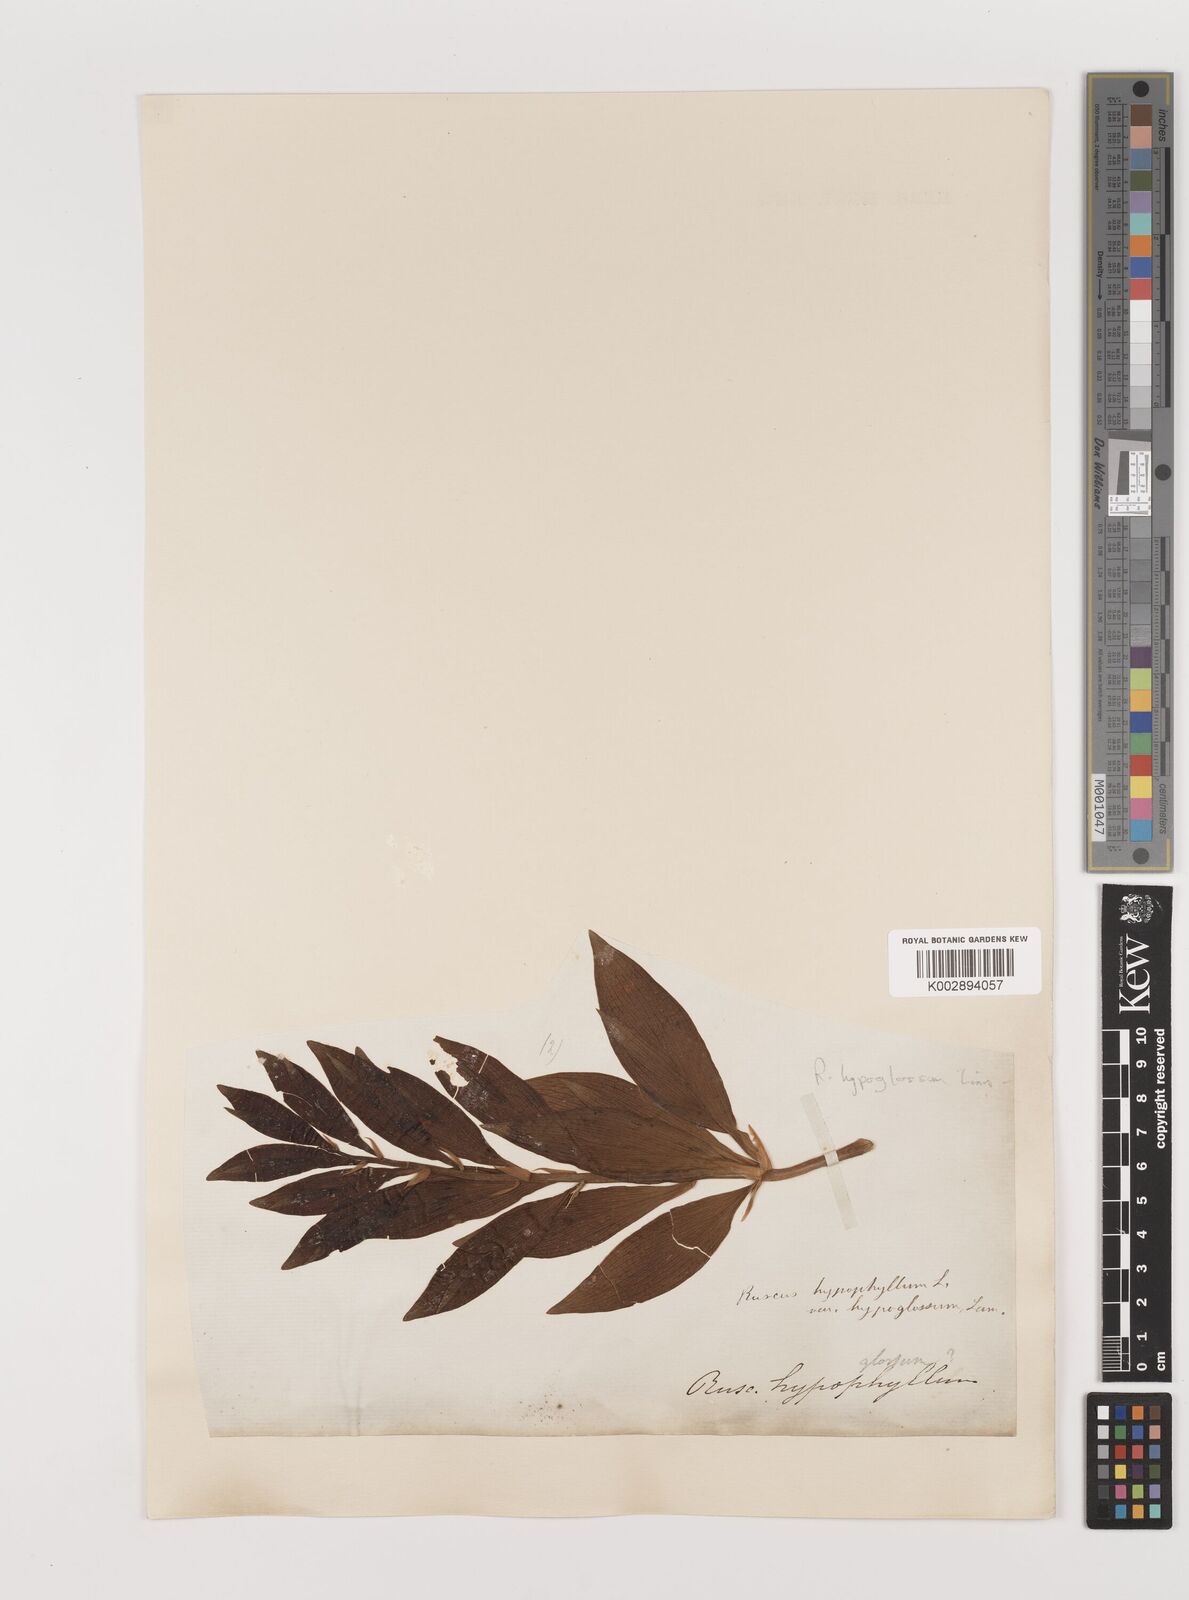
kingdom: Plantae
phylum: Tracheophyta
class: Liliopsida
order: Asparagales
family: Asparagaceae
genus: Ruscus
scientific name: Ruscus hypoglossum
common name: Spineless butcher's-broom
